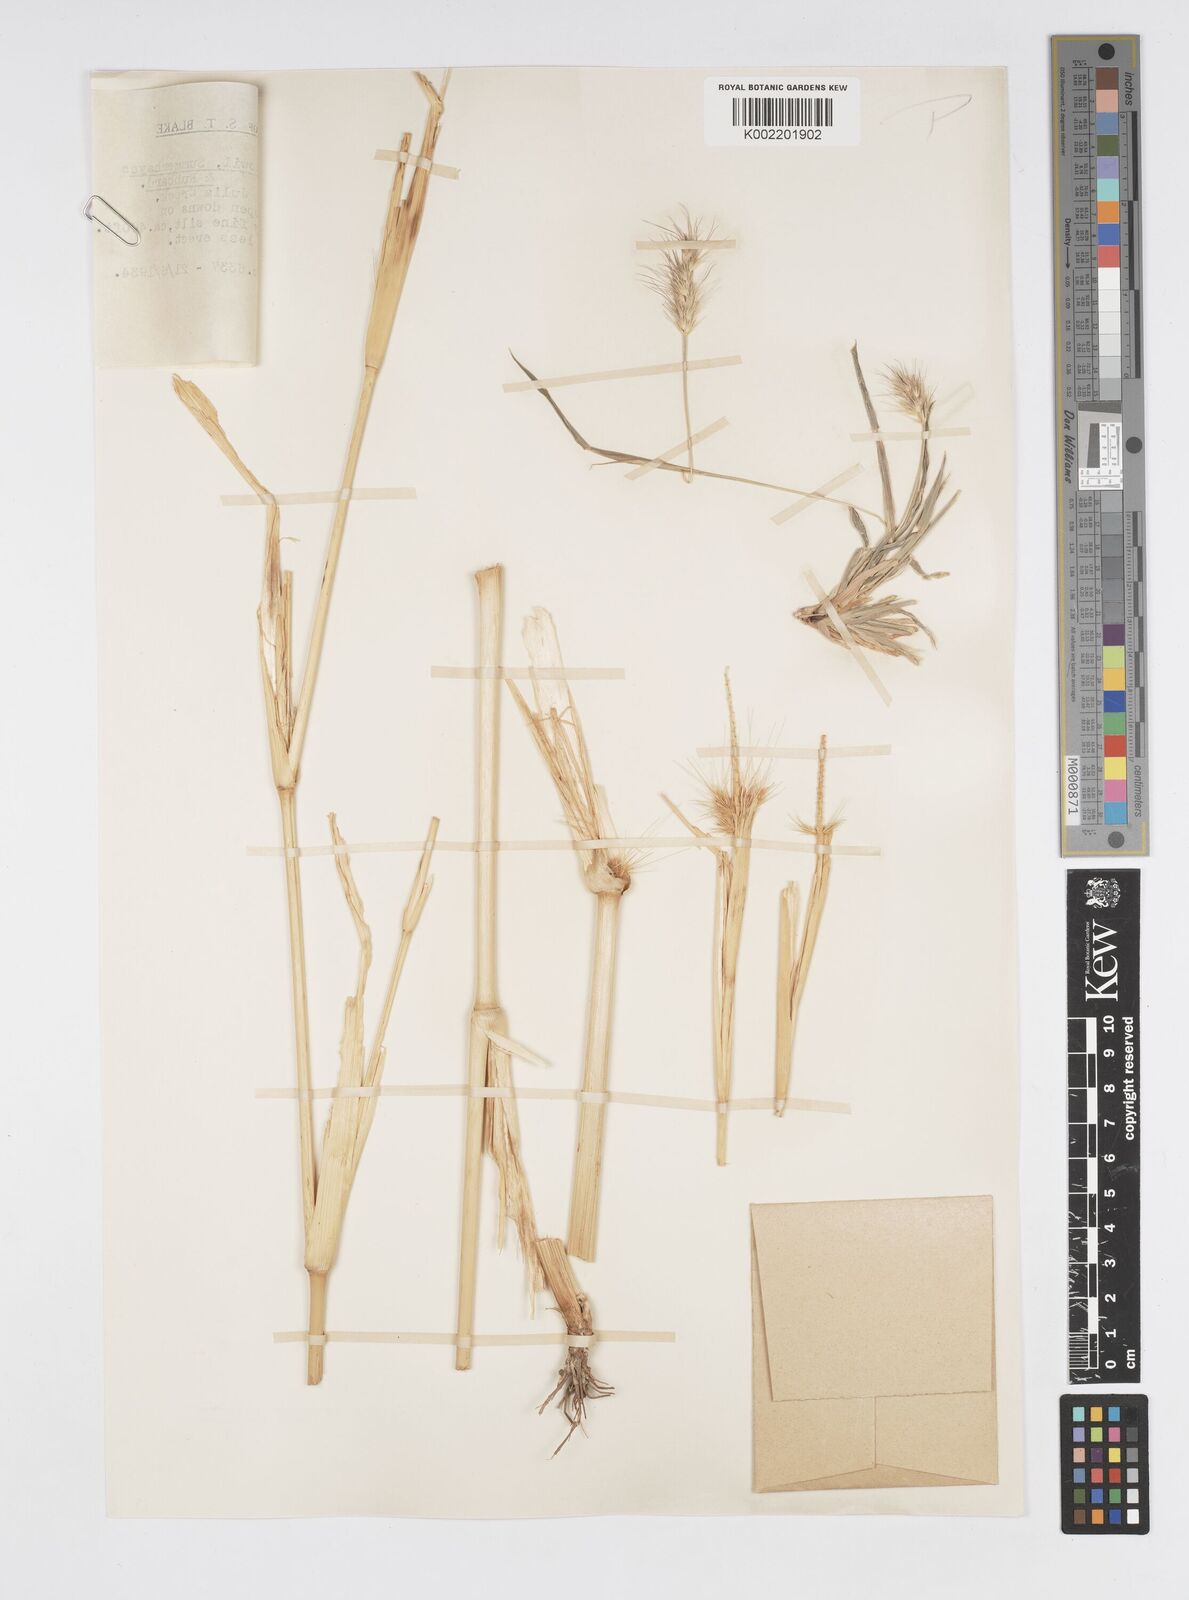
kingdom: Plantae
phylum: Tracheophyta
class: Liliopsida
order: Poales
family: Poaceae
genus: Cenchrus
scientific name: Cenchrus basedowii
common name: Asbestos grass
